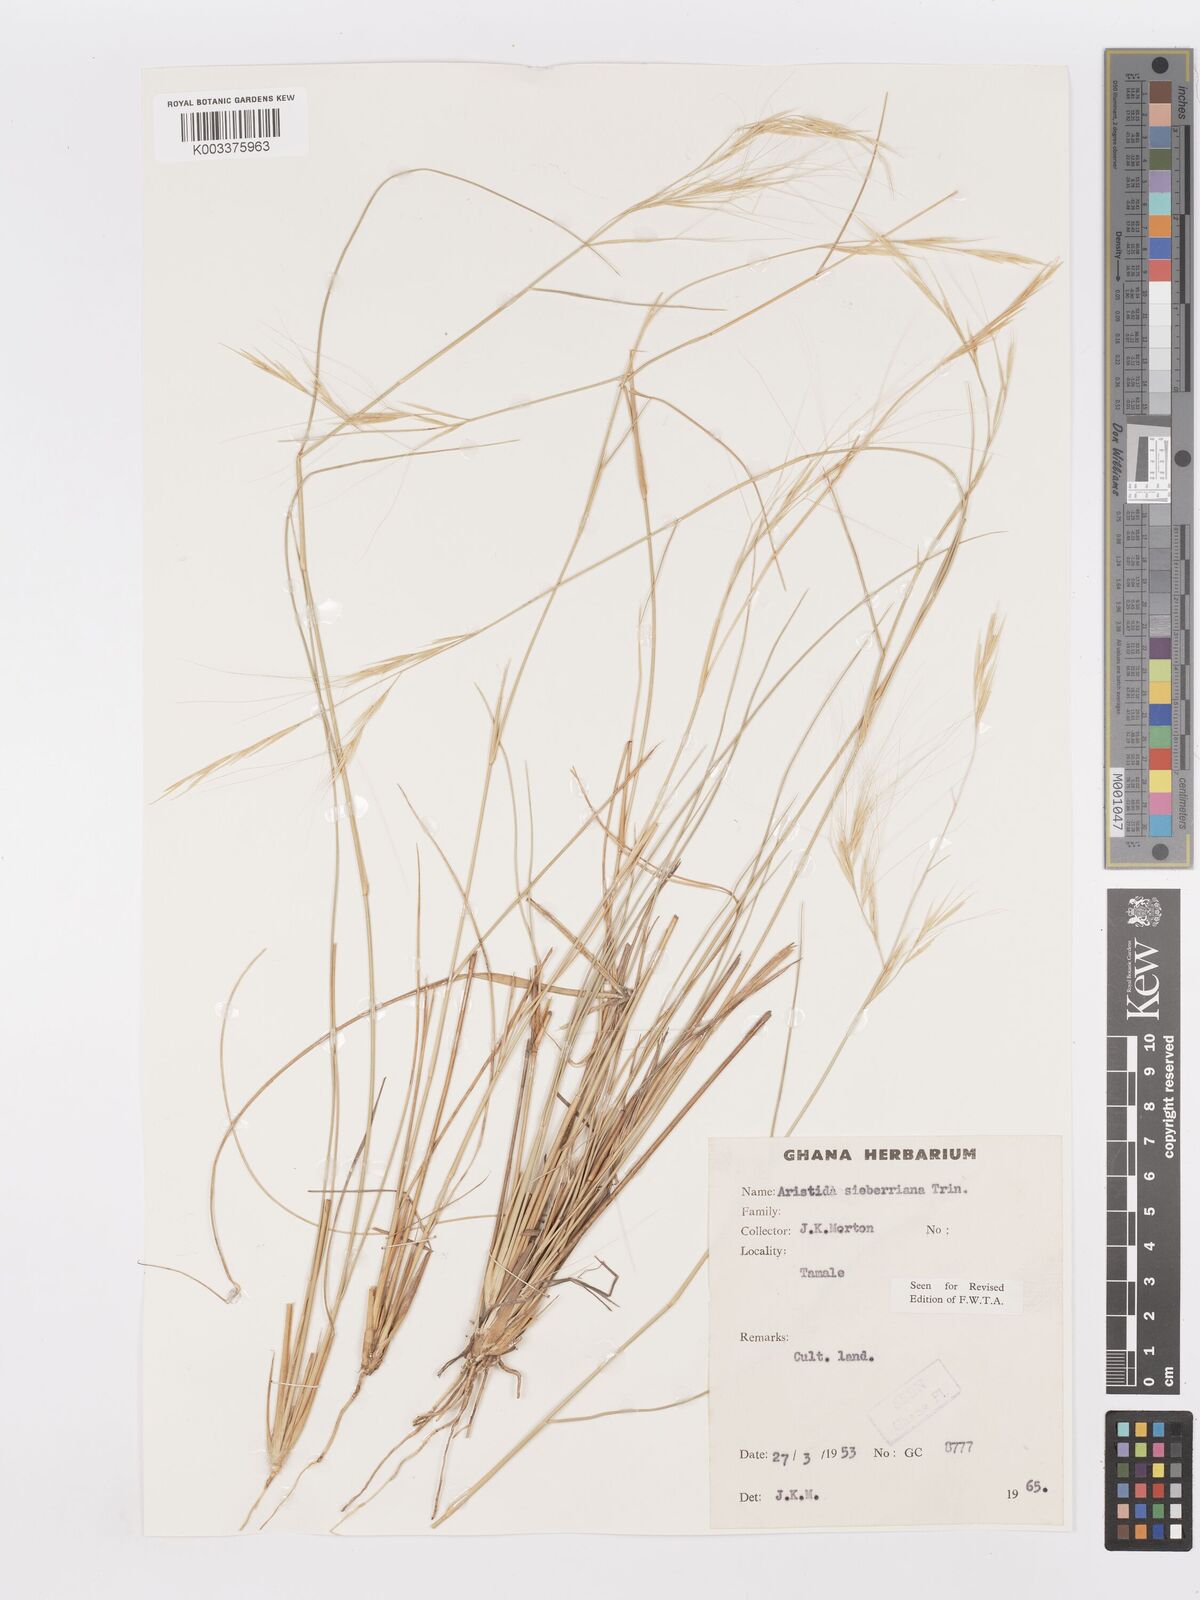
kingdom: Plantae
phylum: Tracheophyta
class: Liliopsida
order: Poales
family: Poaceae
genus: Aristida
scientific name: Aristida sieberiana
